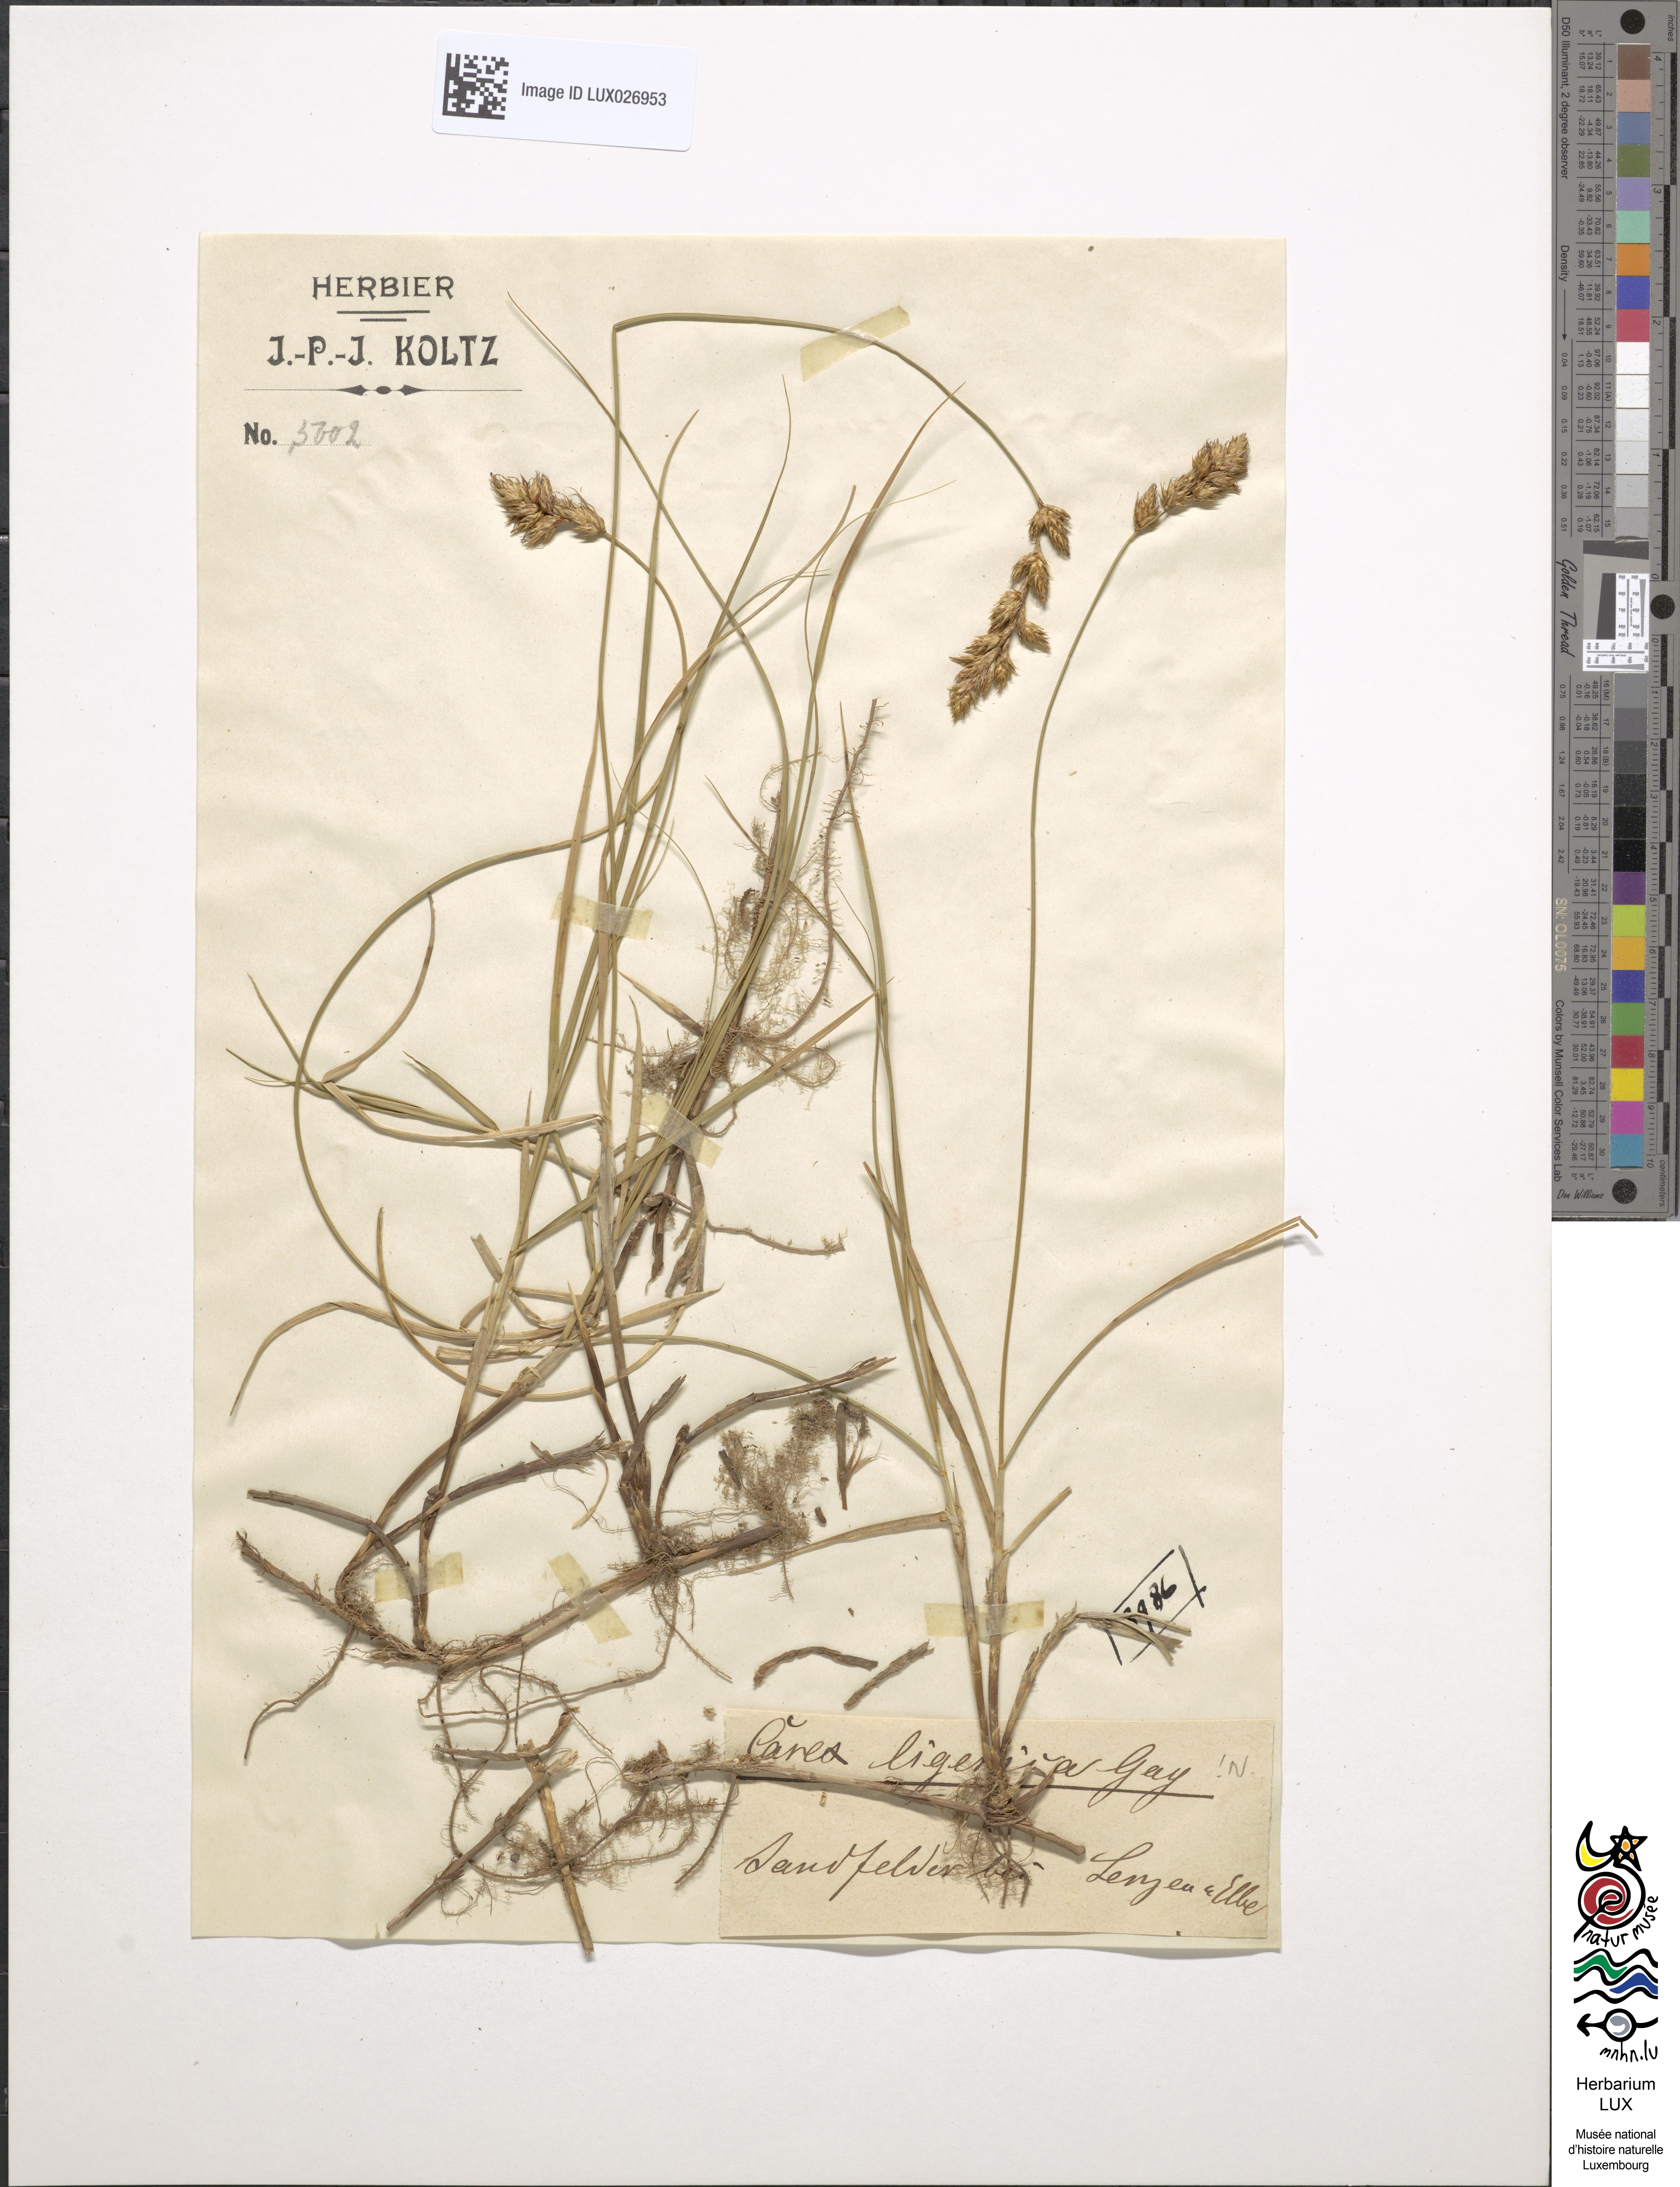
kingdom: Plantae
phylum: Tracheophyta
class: Liliopsida
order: Poales
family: Cyperaceae
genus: Carex
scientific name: Carex colchica
